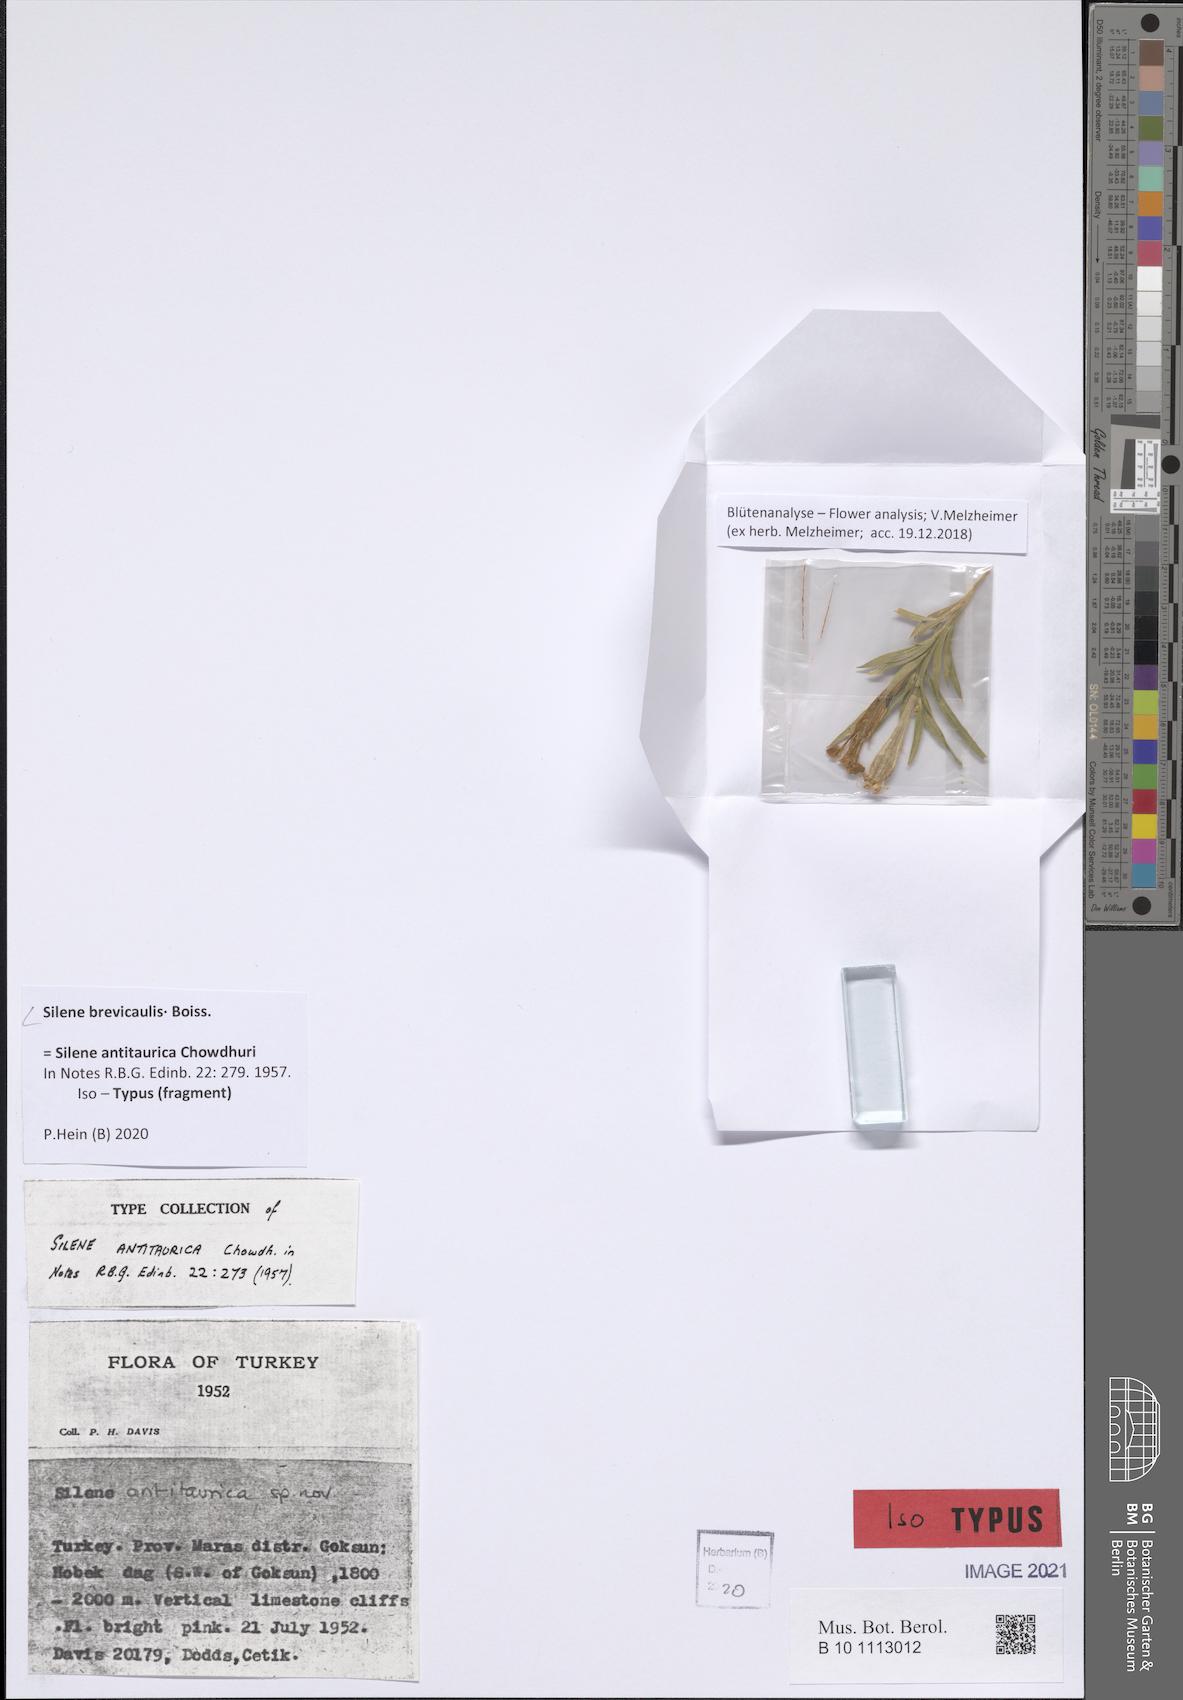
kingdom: Plantae
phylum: Tracheophyta
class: Magnoliopsida
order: Caryophyllales
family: Caryophyllaceae
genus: Silene
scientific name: Silene brevicaulis
